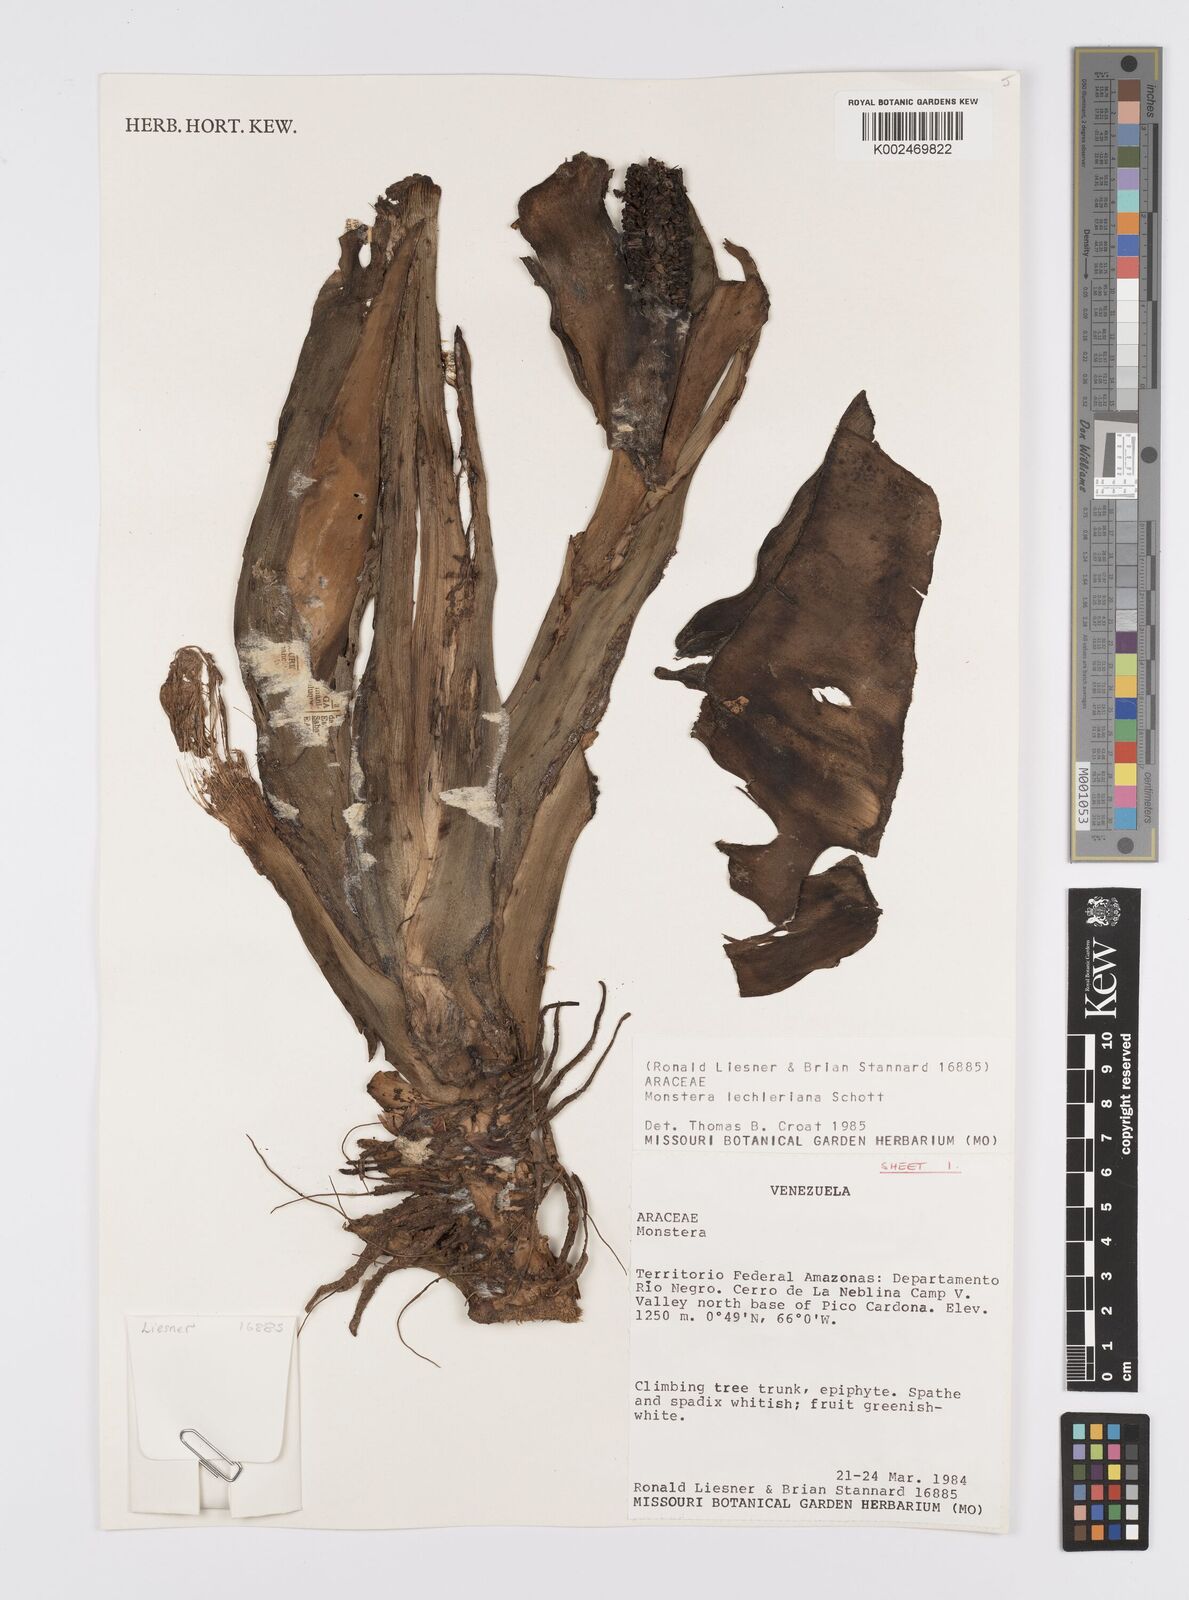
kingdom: Plantae
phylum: Tracheophyta
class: Liliopsida
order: Alismatales
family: Araceae
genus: Monstera
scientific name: Monstera lechleriana
